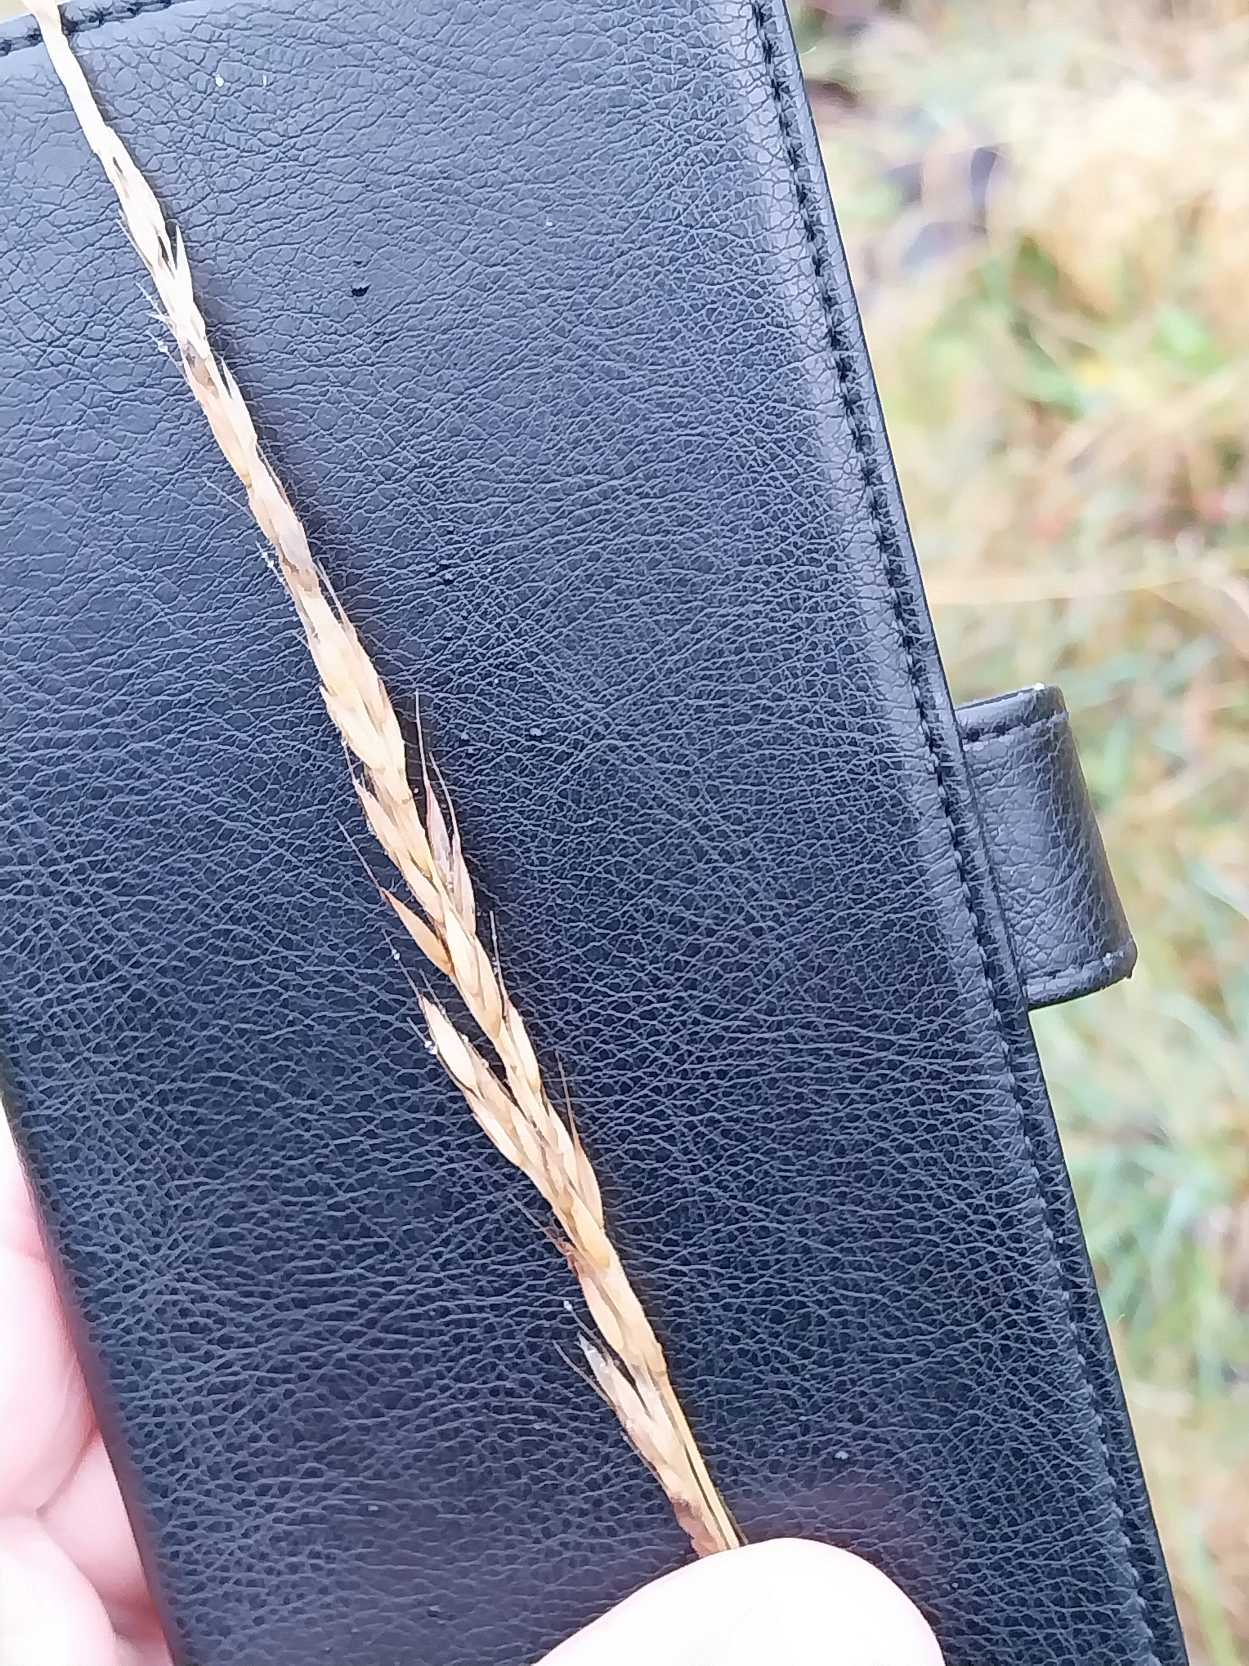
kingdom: Plantae
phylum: Tracheophyta
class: Liliopsida
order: Poales
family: Poaceae
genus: Arrhenatherum
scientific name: Arrhenatherum elatius
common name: Draphavre
